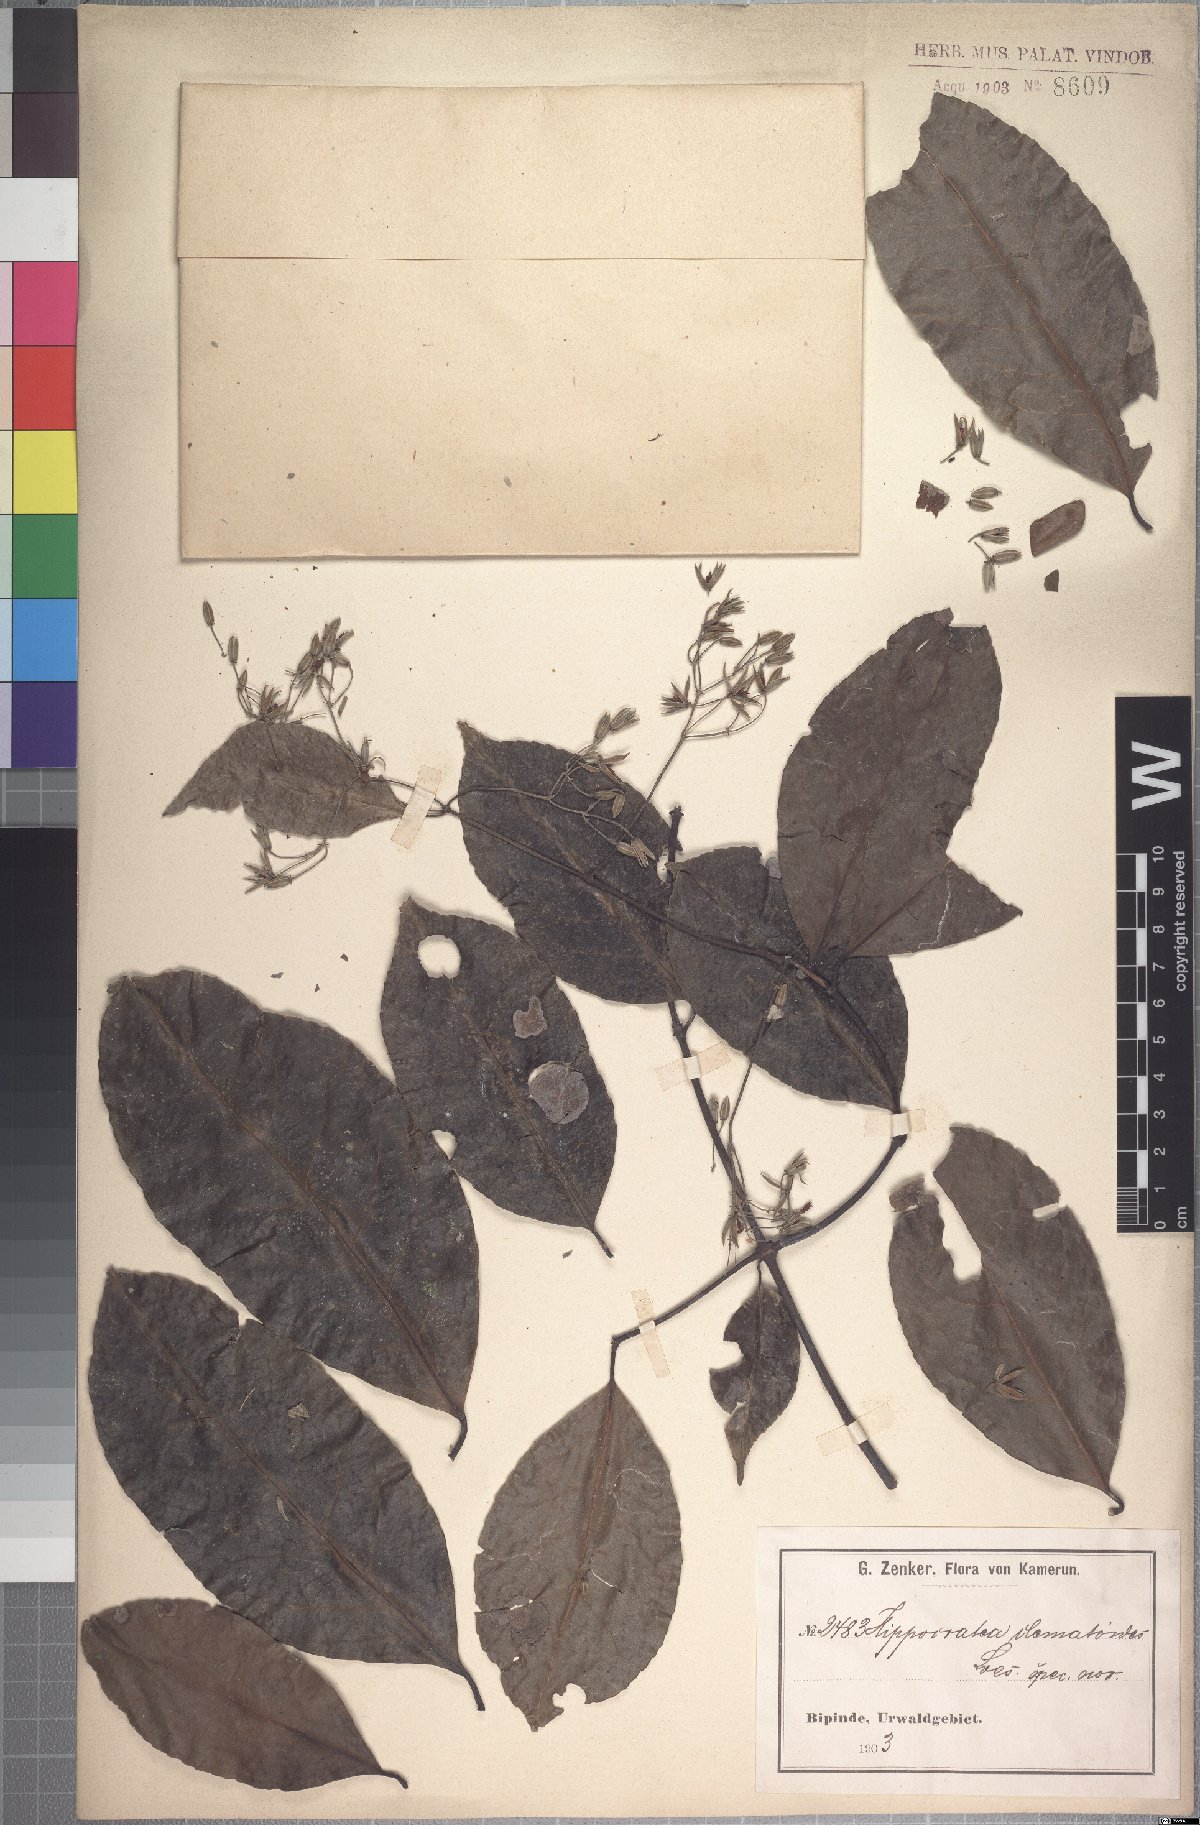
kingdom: Plantae
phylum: Tracheophyta
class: Magnoliopsida
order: Celastrales
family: Celastraceae
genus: Loeseneriella
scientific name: Loeseneriella clematoides
